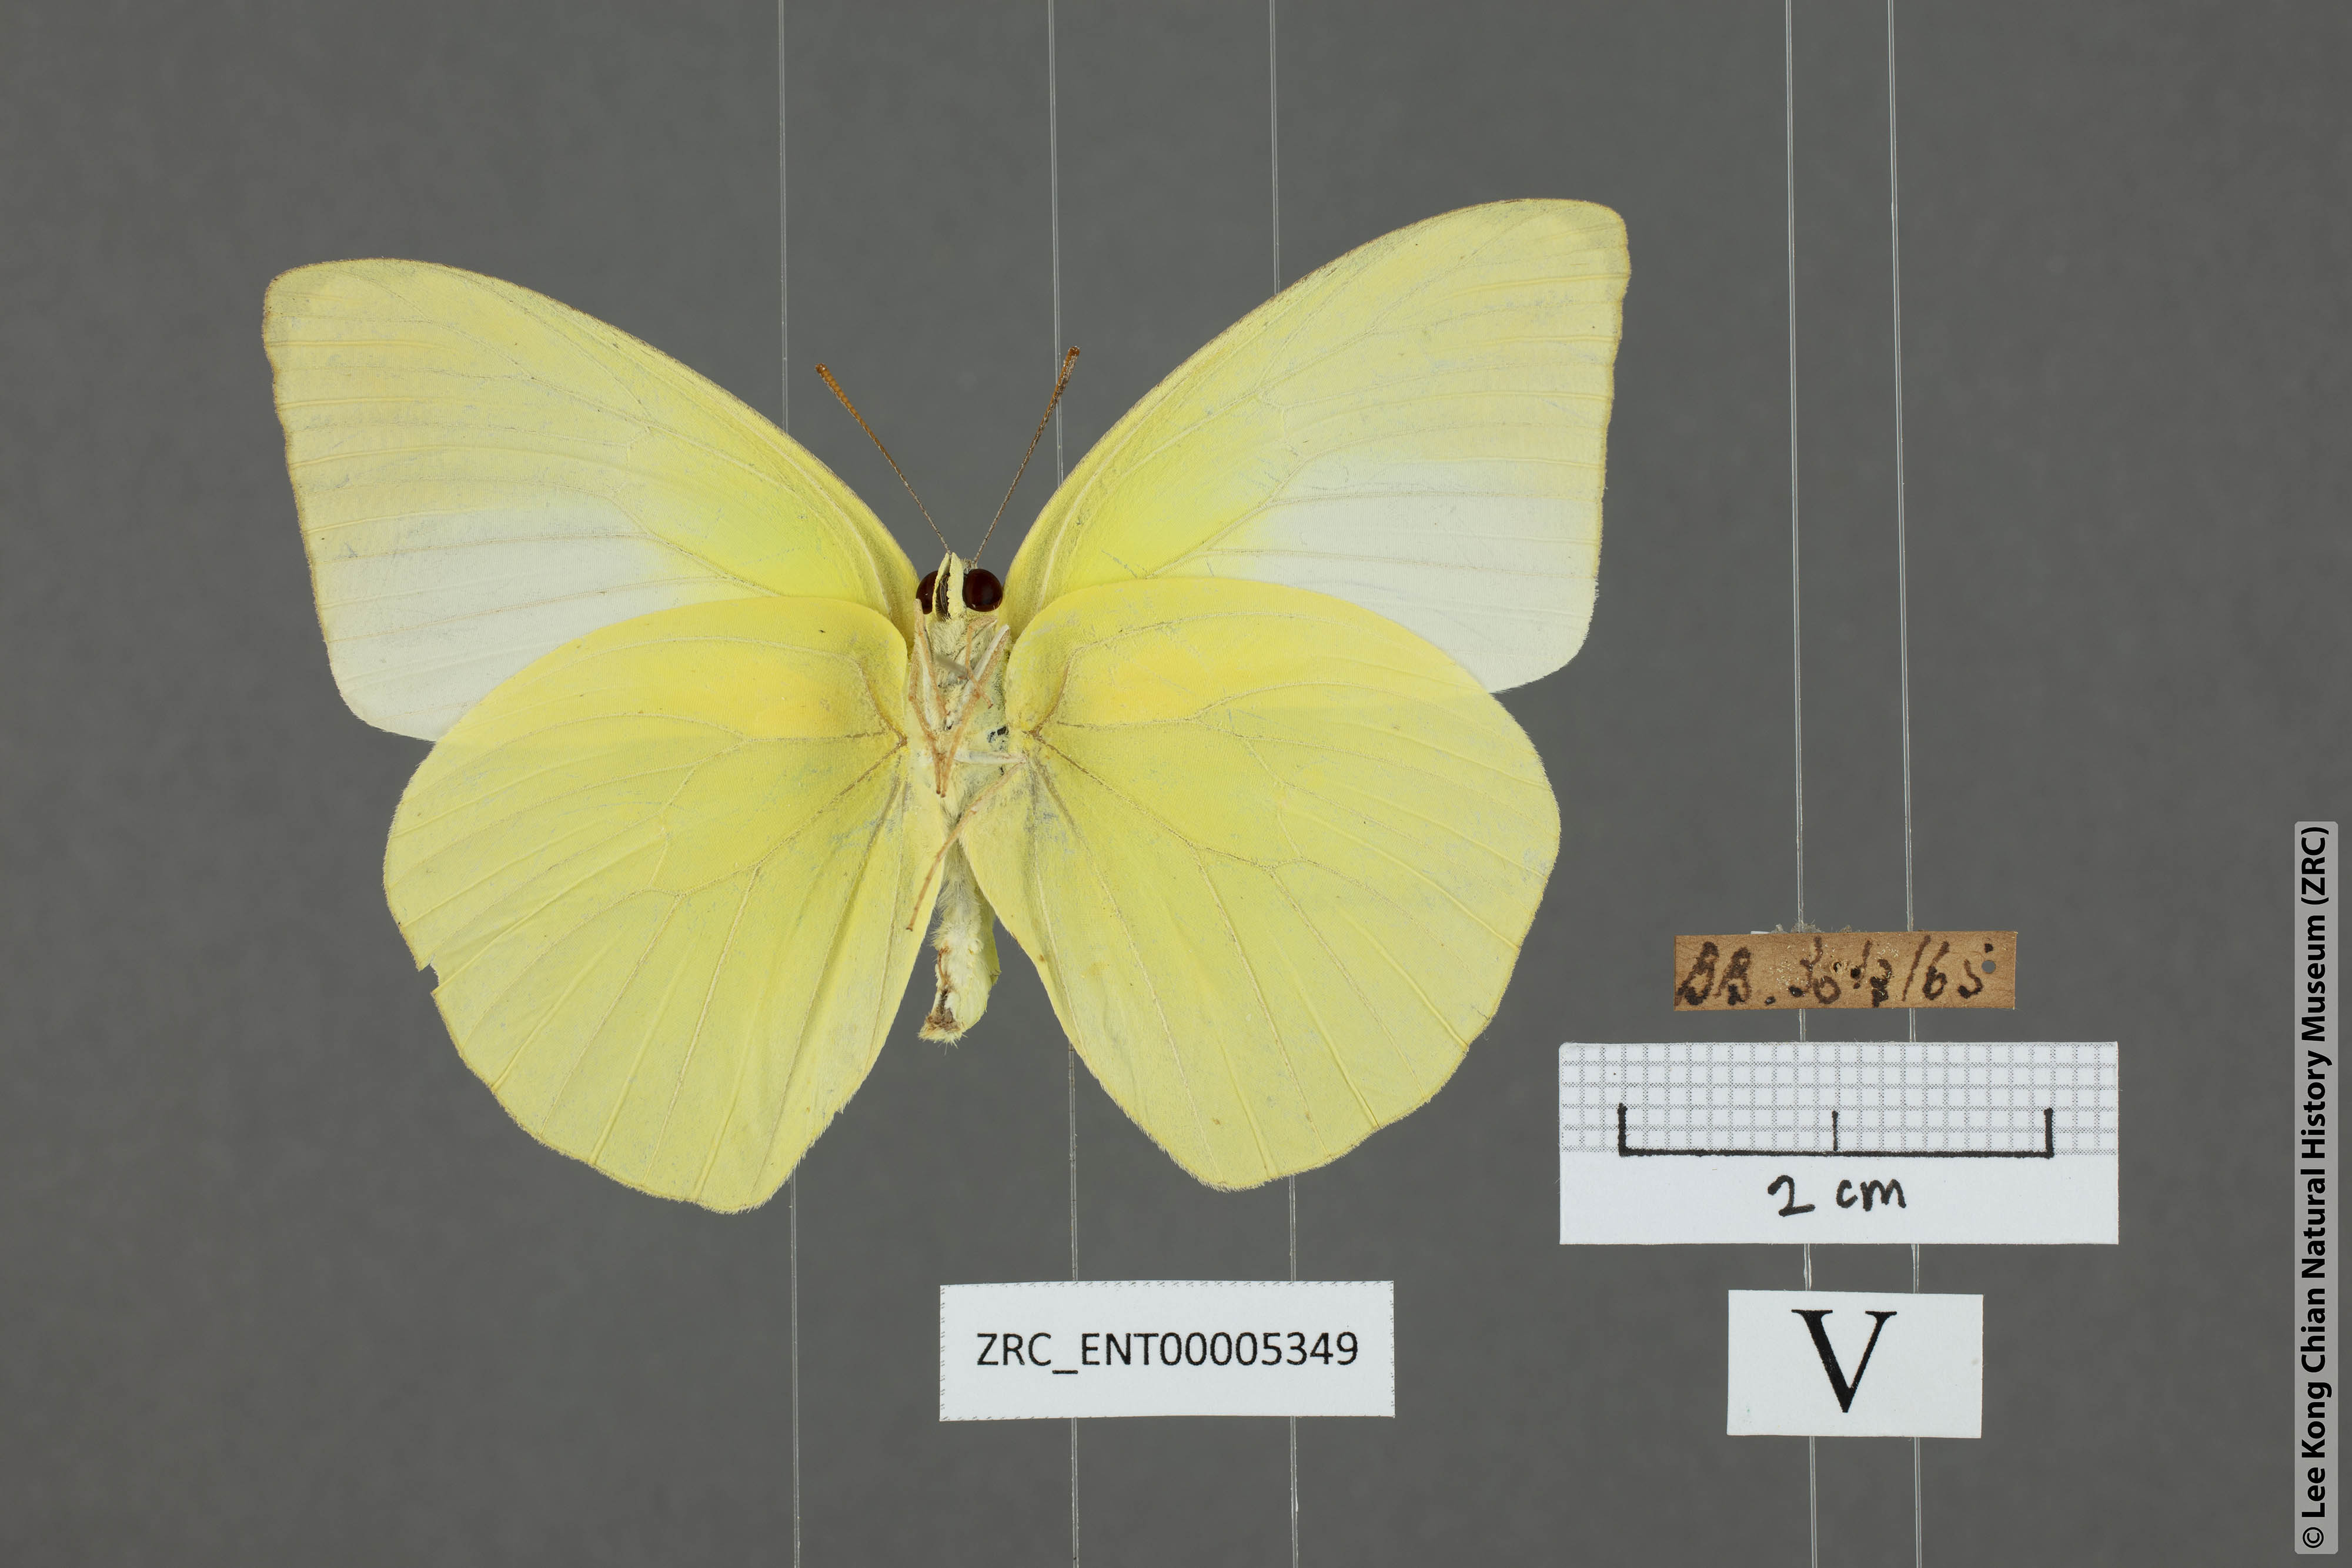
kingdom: Animalia
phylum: Arthropoda
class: Insecta
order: Lepidoptera
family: Pieridae
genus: Catopsilia
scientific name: Catopsilia pomona
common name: Common emigrant
